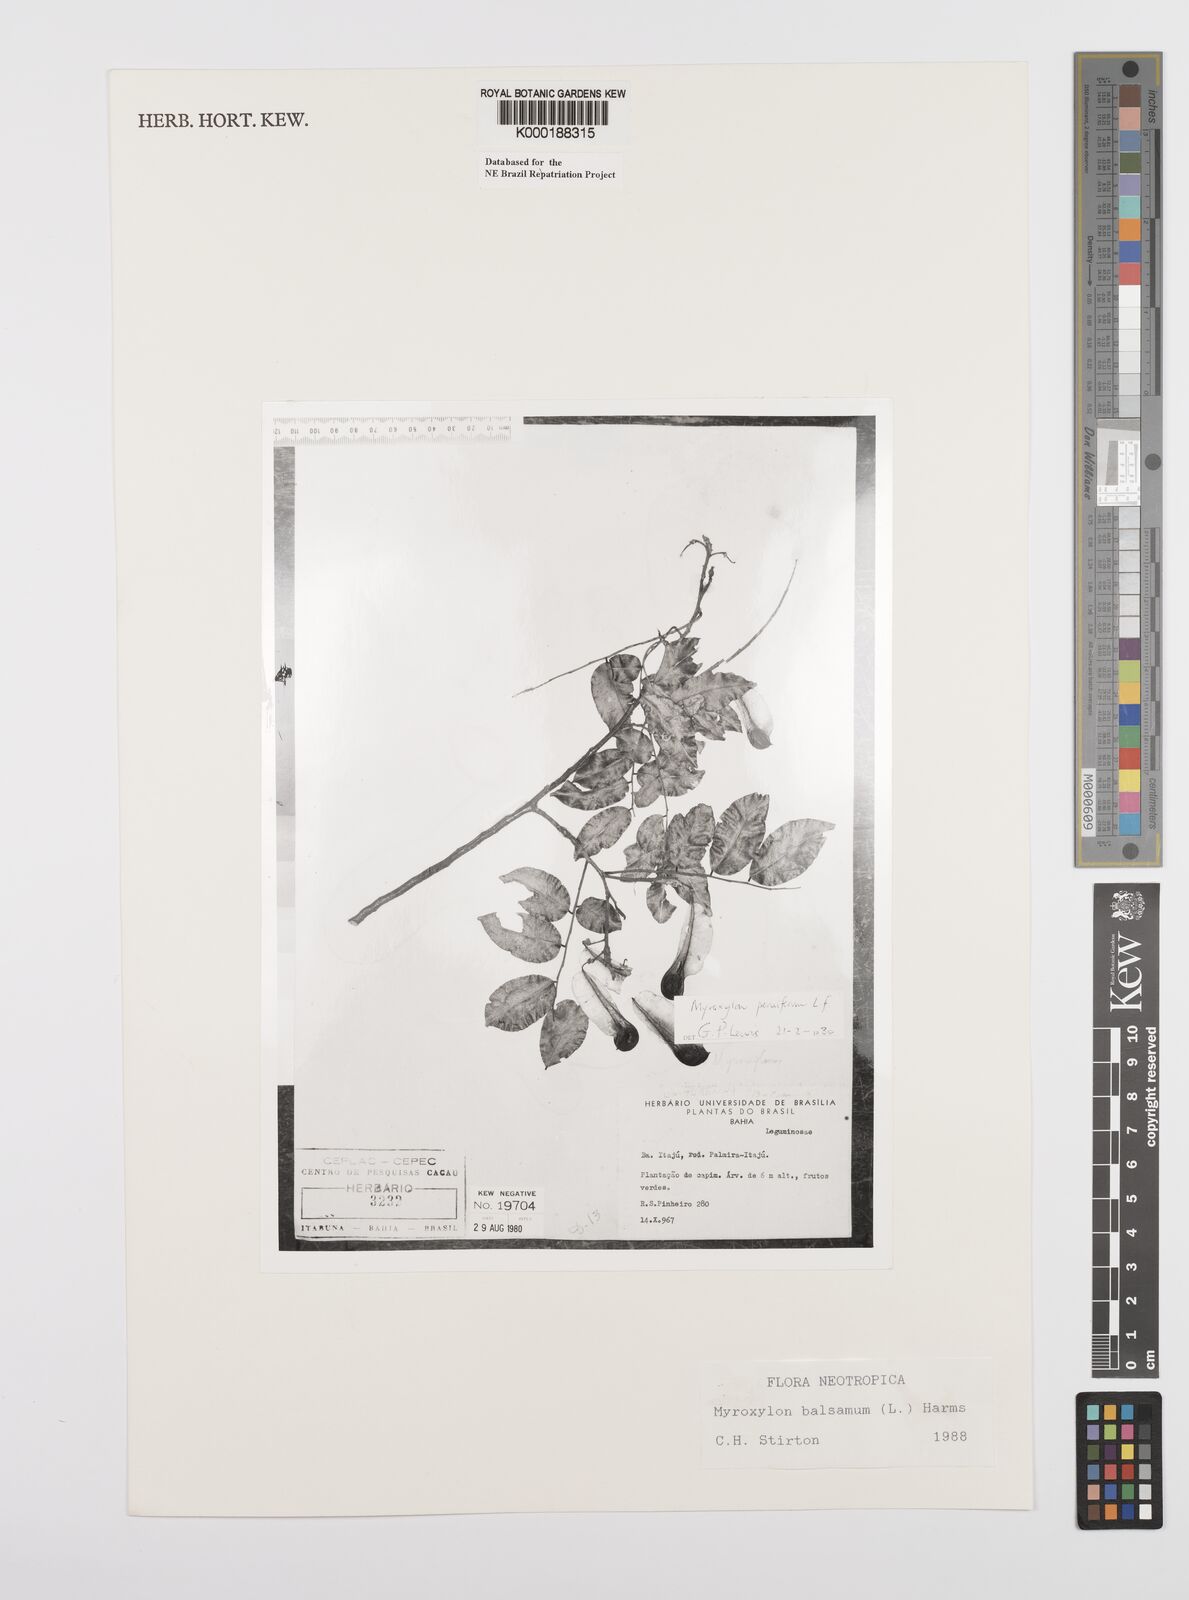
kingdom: Plantae
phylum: Tracheophyta
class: Magnoliopsida
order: Fabales
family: Fabaceae
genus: Myroxylon
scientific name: Myroxylon balsamum
